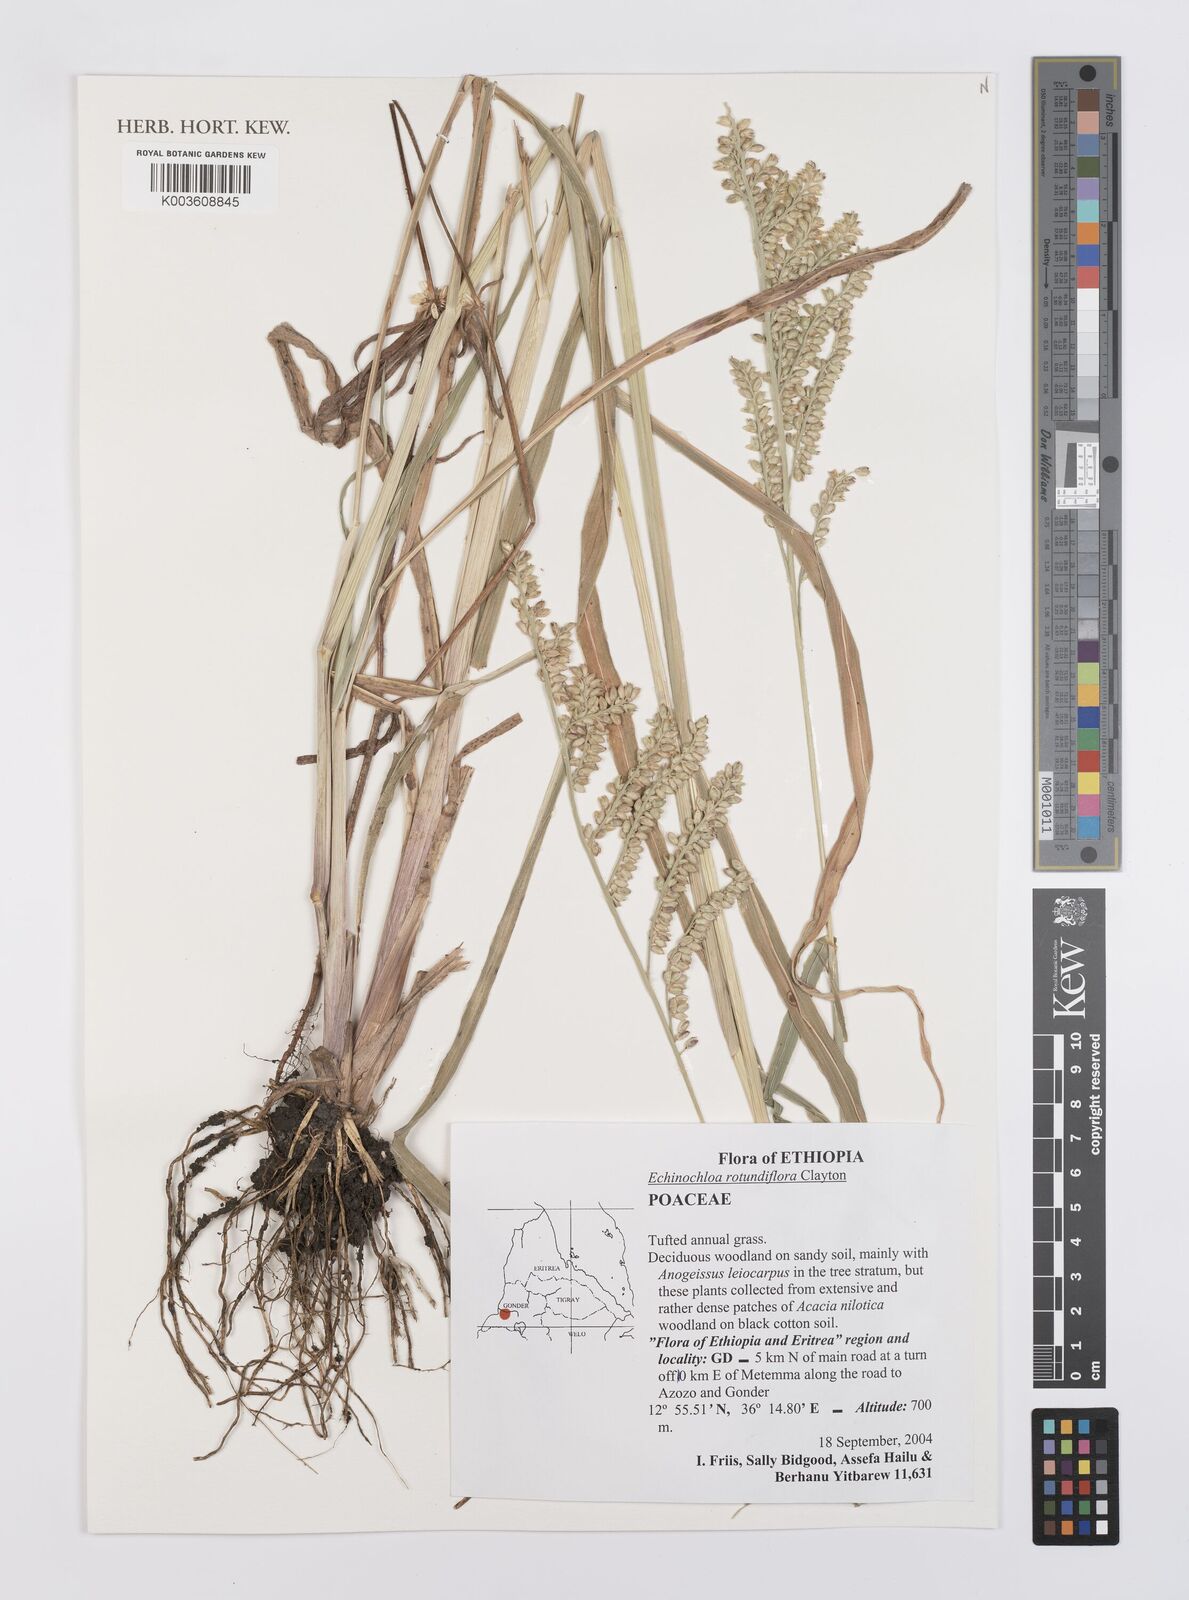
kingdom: Plantae
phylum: Tracheophyta
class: Liliopsida
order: Poales
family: Poaceae
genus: Echinochloa
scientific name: Echinochloa rotundiflora
